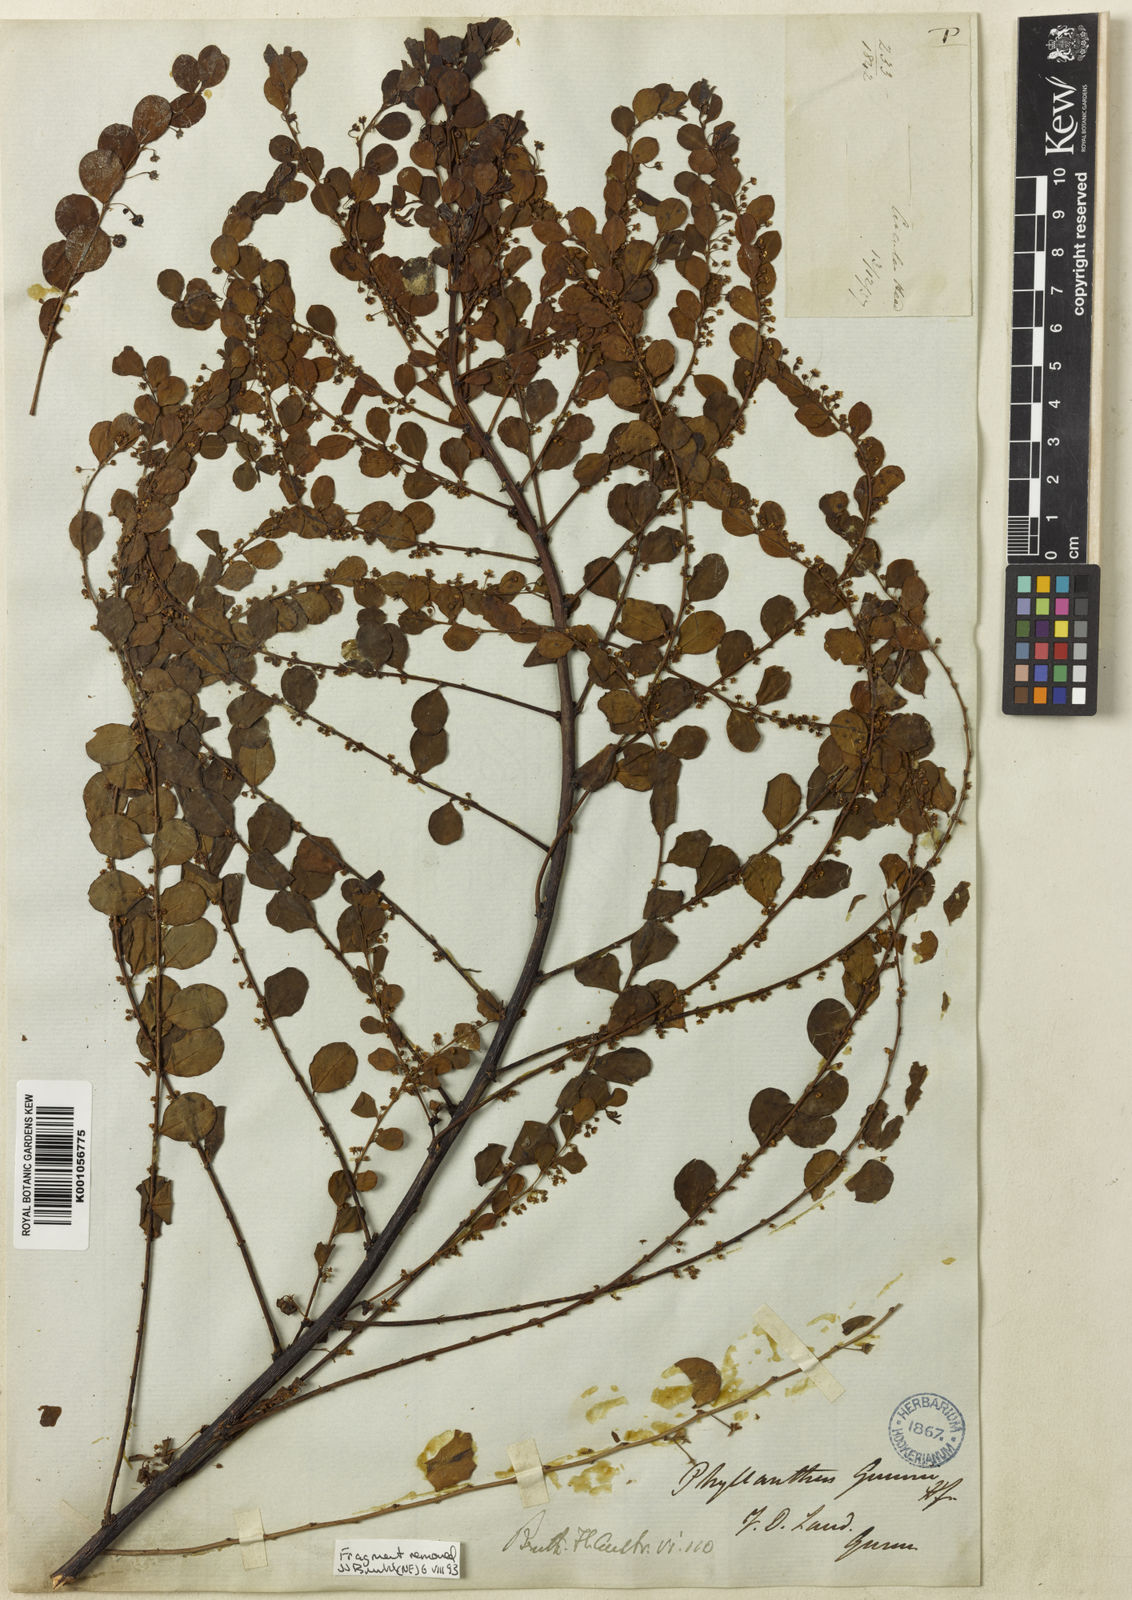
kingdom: Plantae
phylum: Tracheophyta
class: Magnoliopsida
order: Malpighiales
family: Phyllanthaceae
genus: Phyllanthus
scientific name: Phyllanthus gunnii
